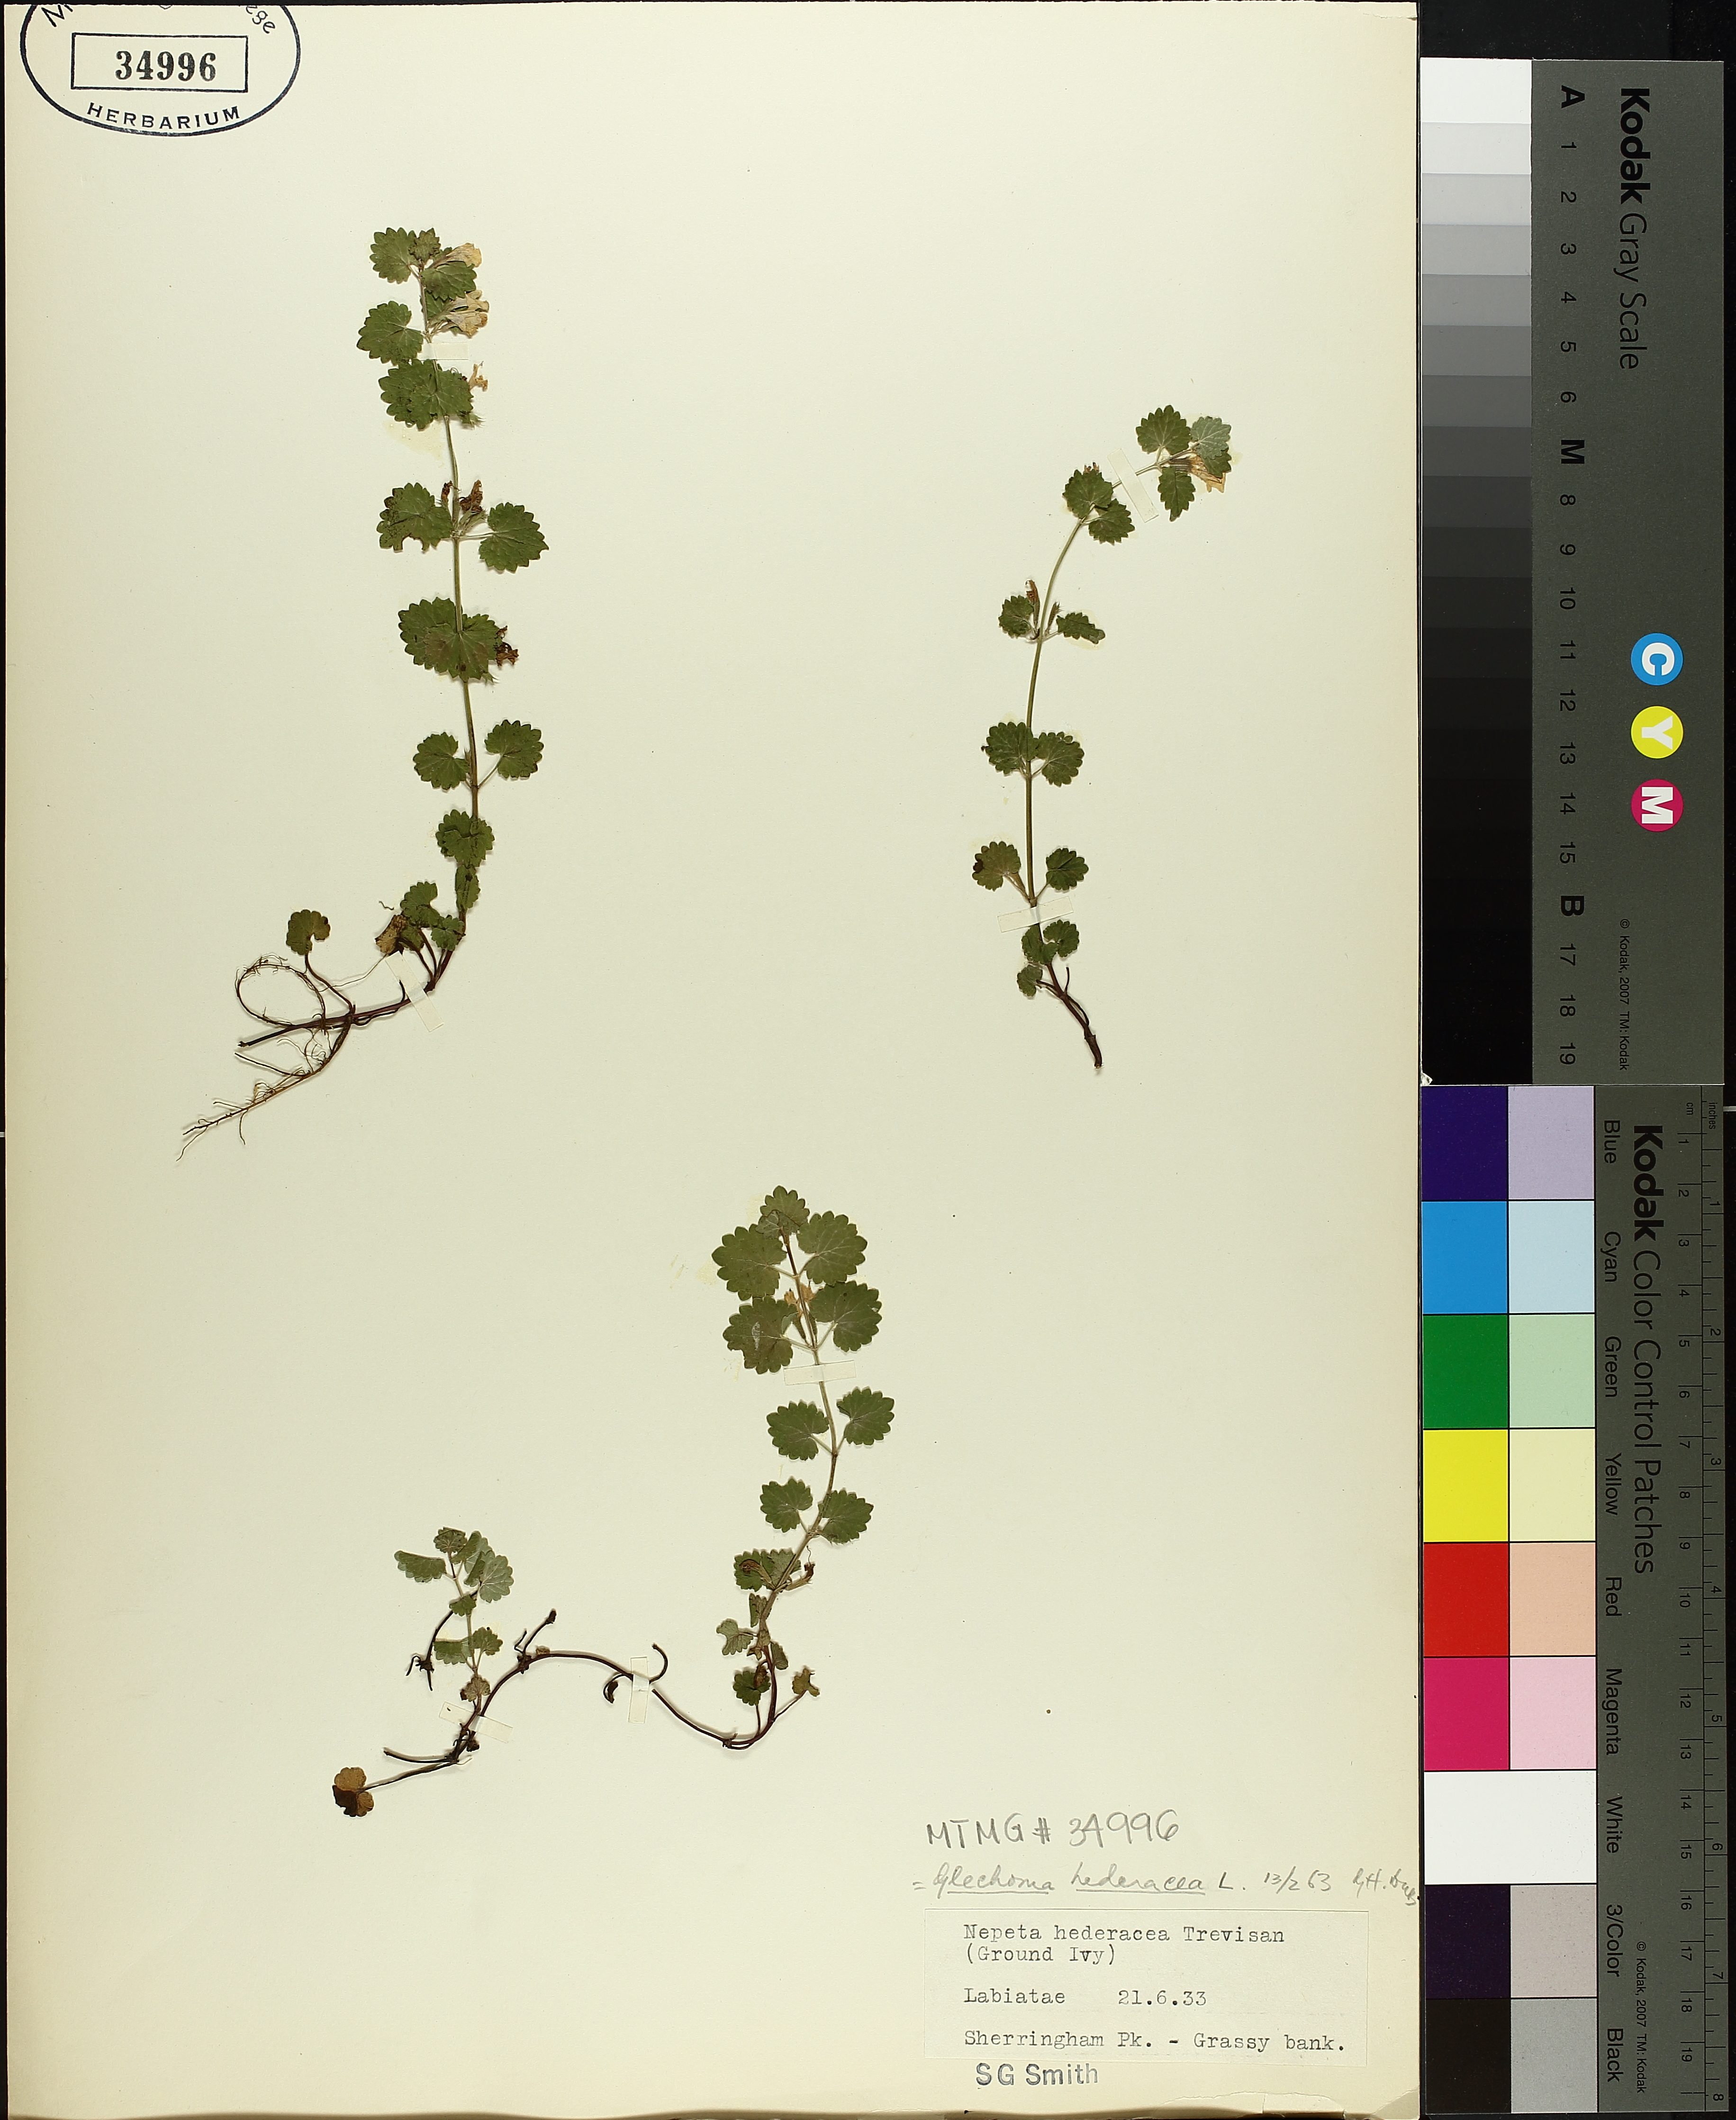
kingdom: Plantae
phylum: Tracheophyta
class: Magnoliopsida
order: Lamiales
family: Lamiaceae
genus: Glechoma
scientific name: Glechoma hederacea
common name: Ground ivy
